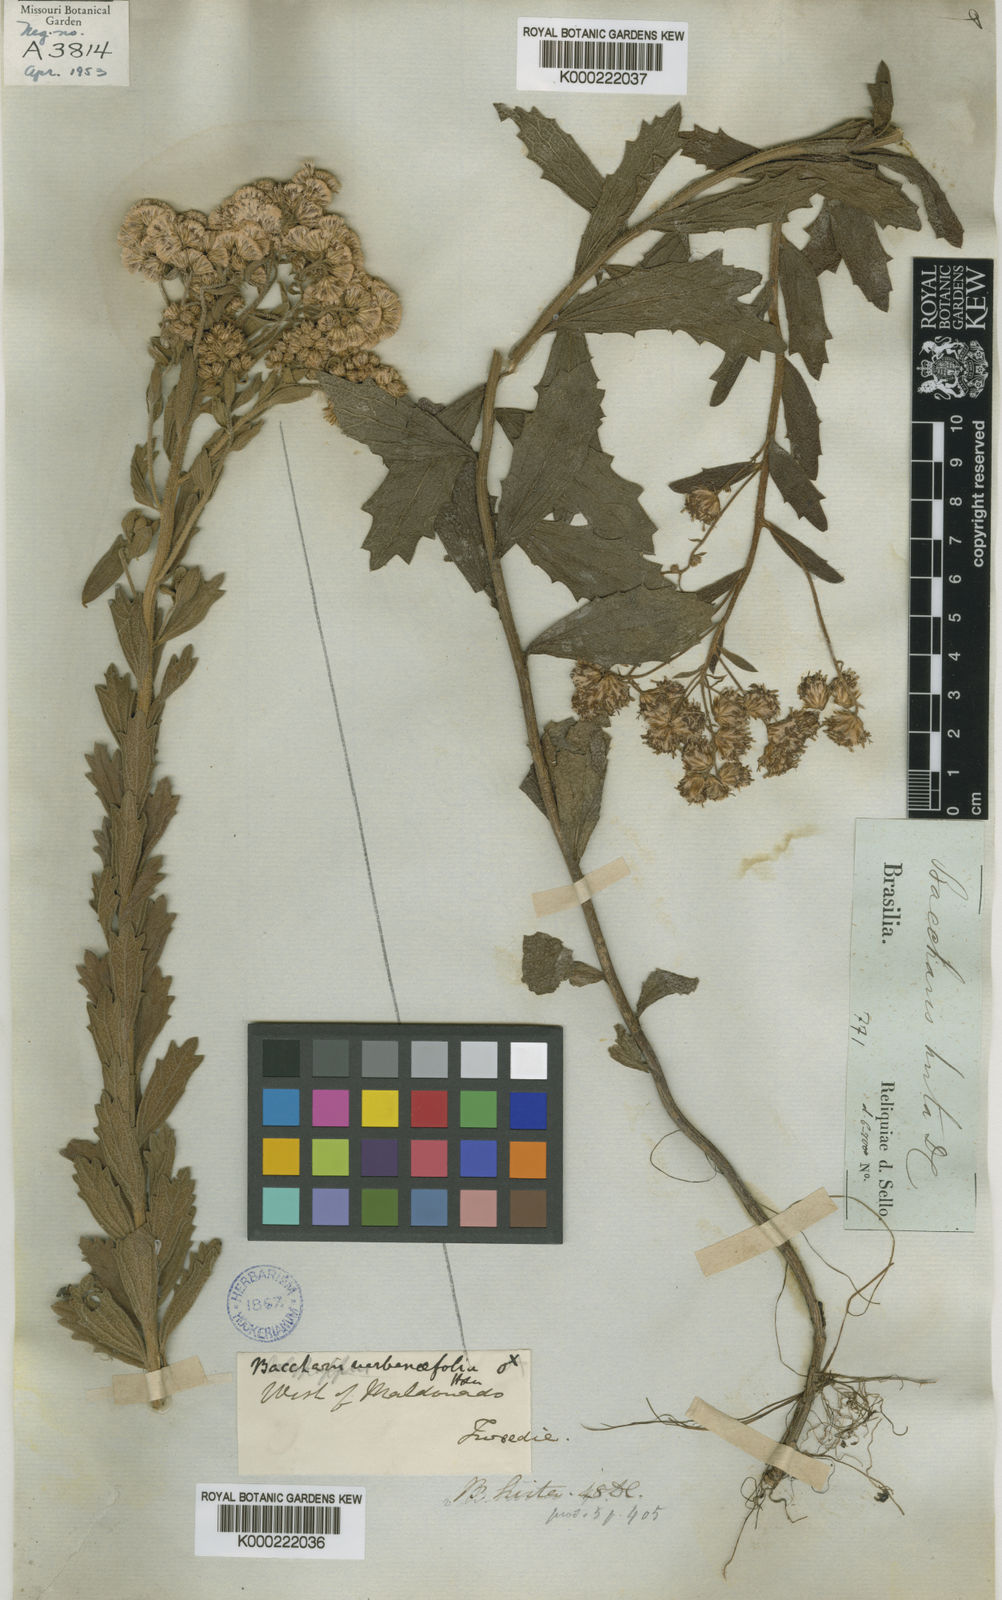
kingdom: Plantae
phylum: Tracheophyta
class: Magnoliopsida
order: Asterales
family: Asteraceae
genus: Baccharis
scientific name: Baccharis hirta
